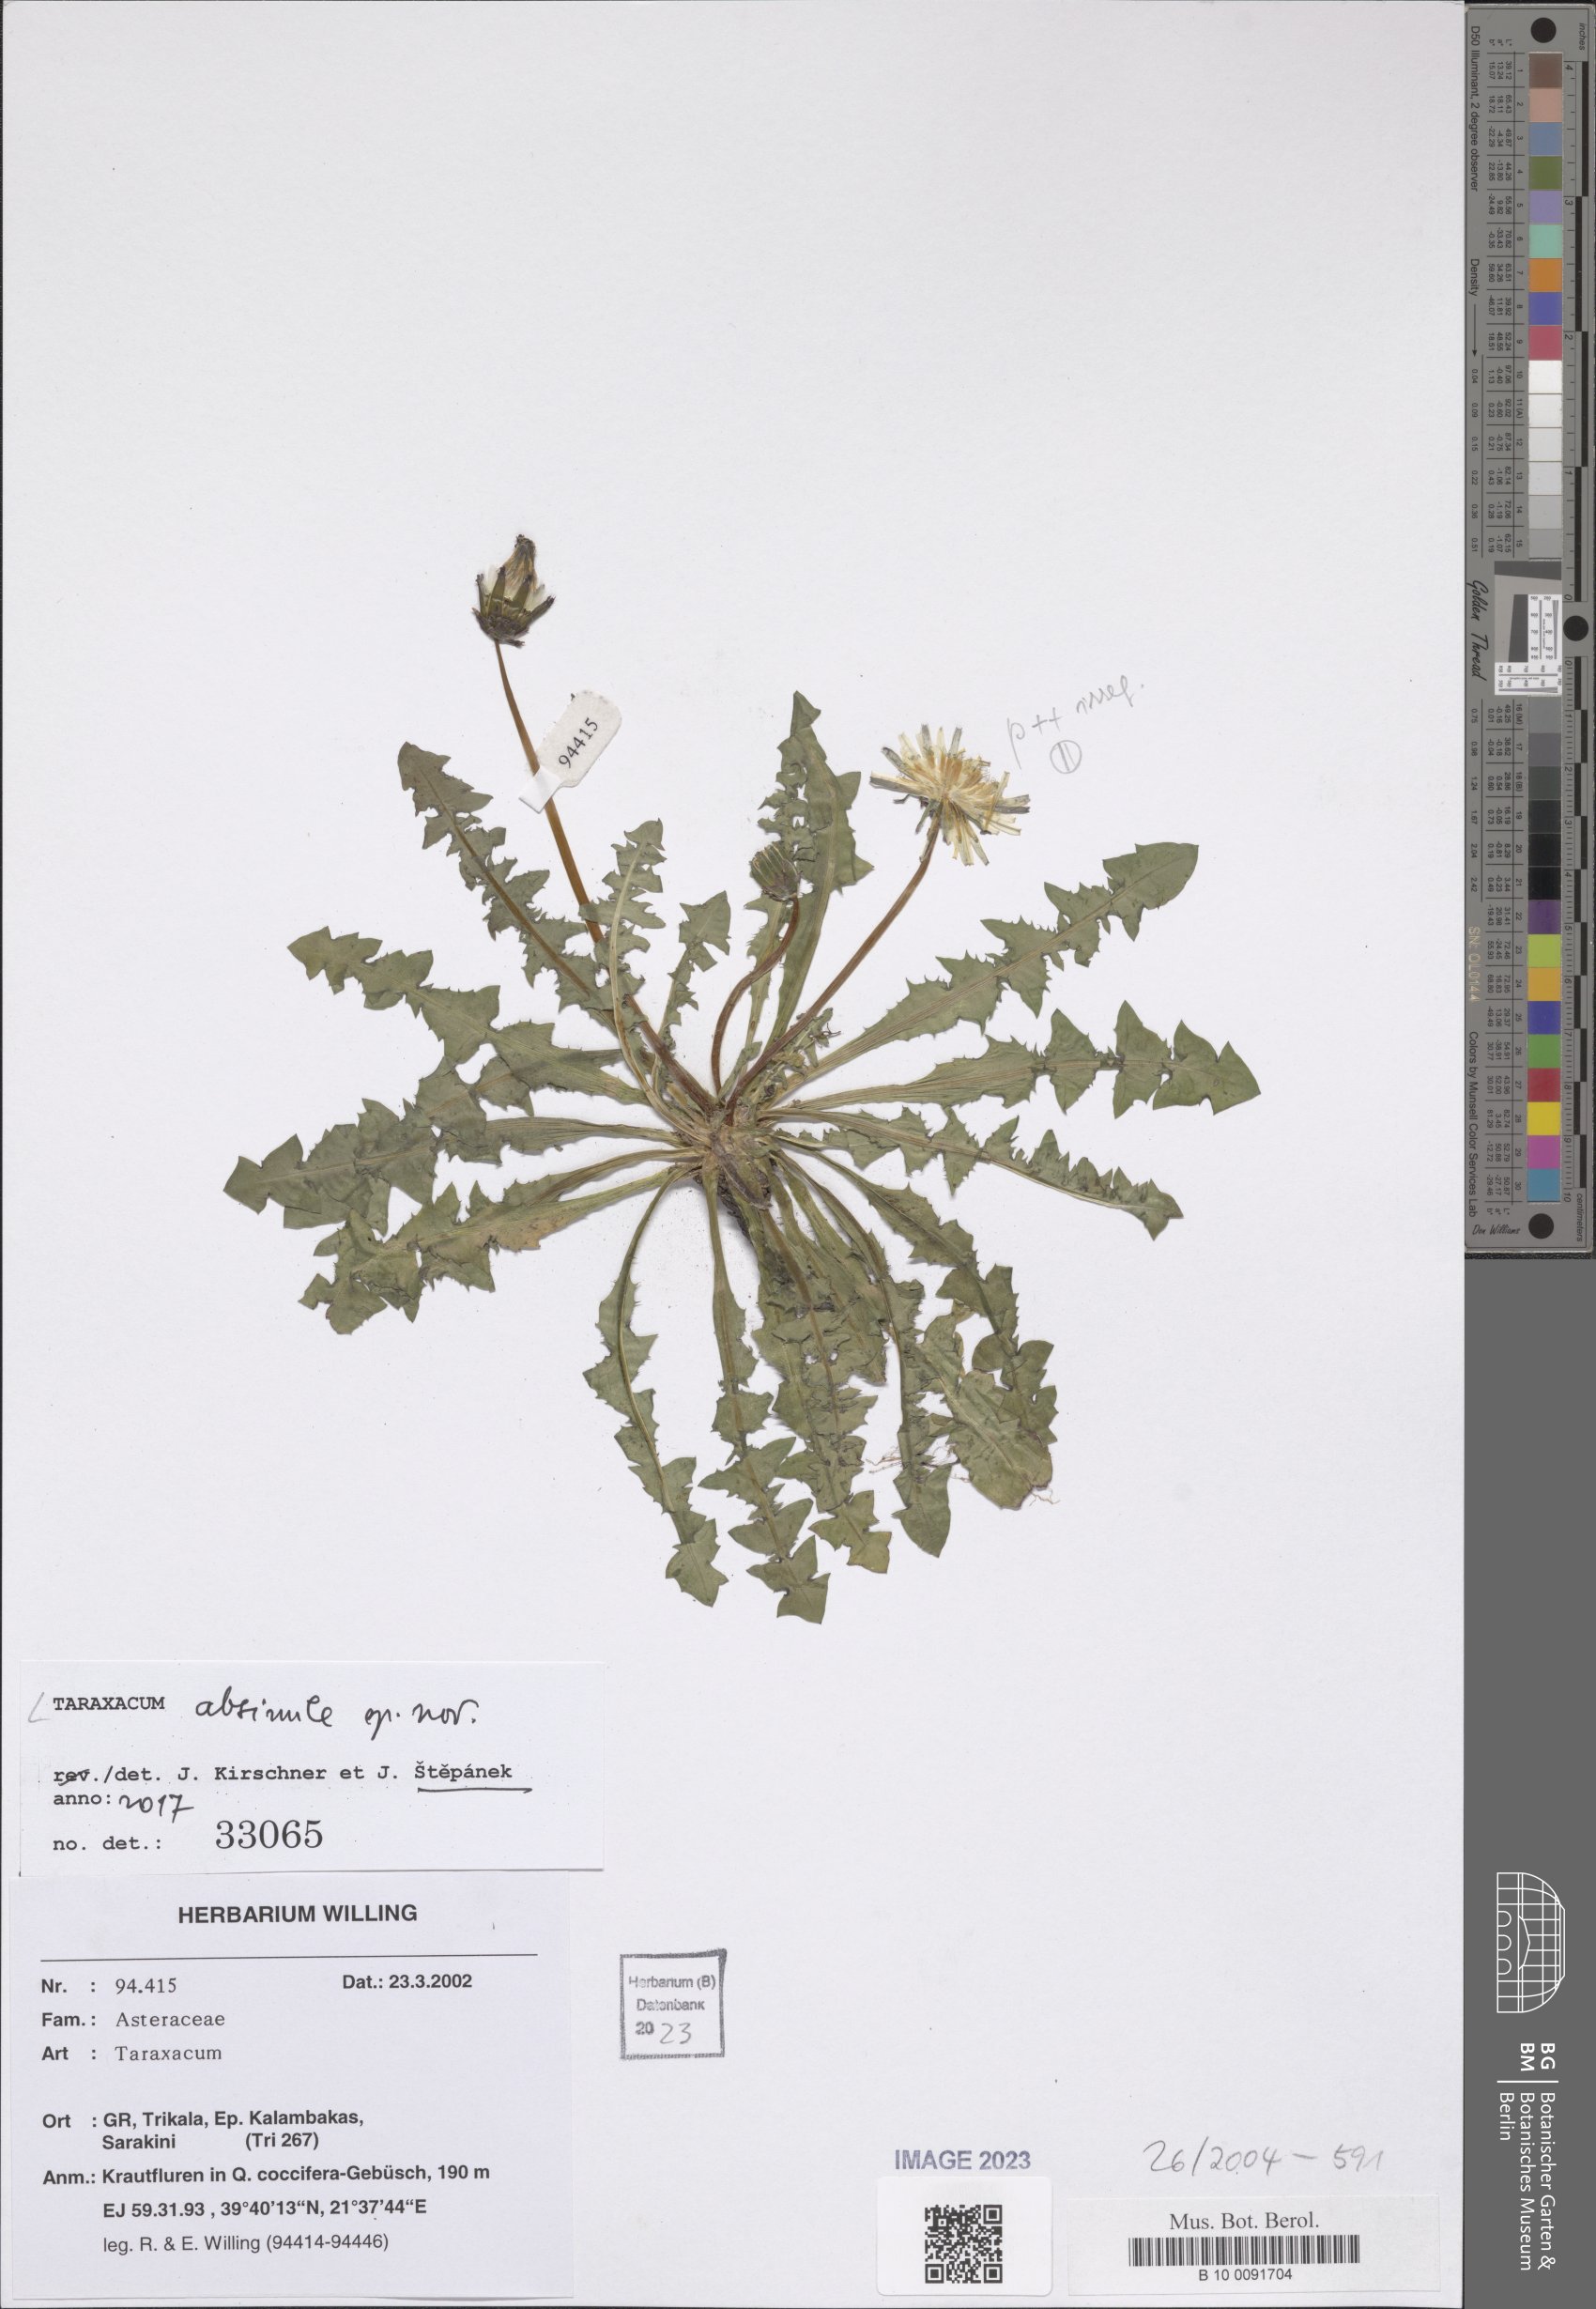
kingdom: Plantae
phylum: Tracheophyta
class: Magnoliopsida
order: Asterales
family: Asteraceae
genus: Taraxacum
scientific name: Taraxacum longisquameum
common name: Elongate-bracted dandelion
